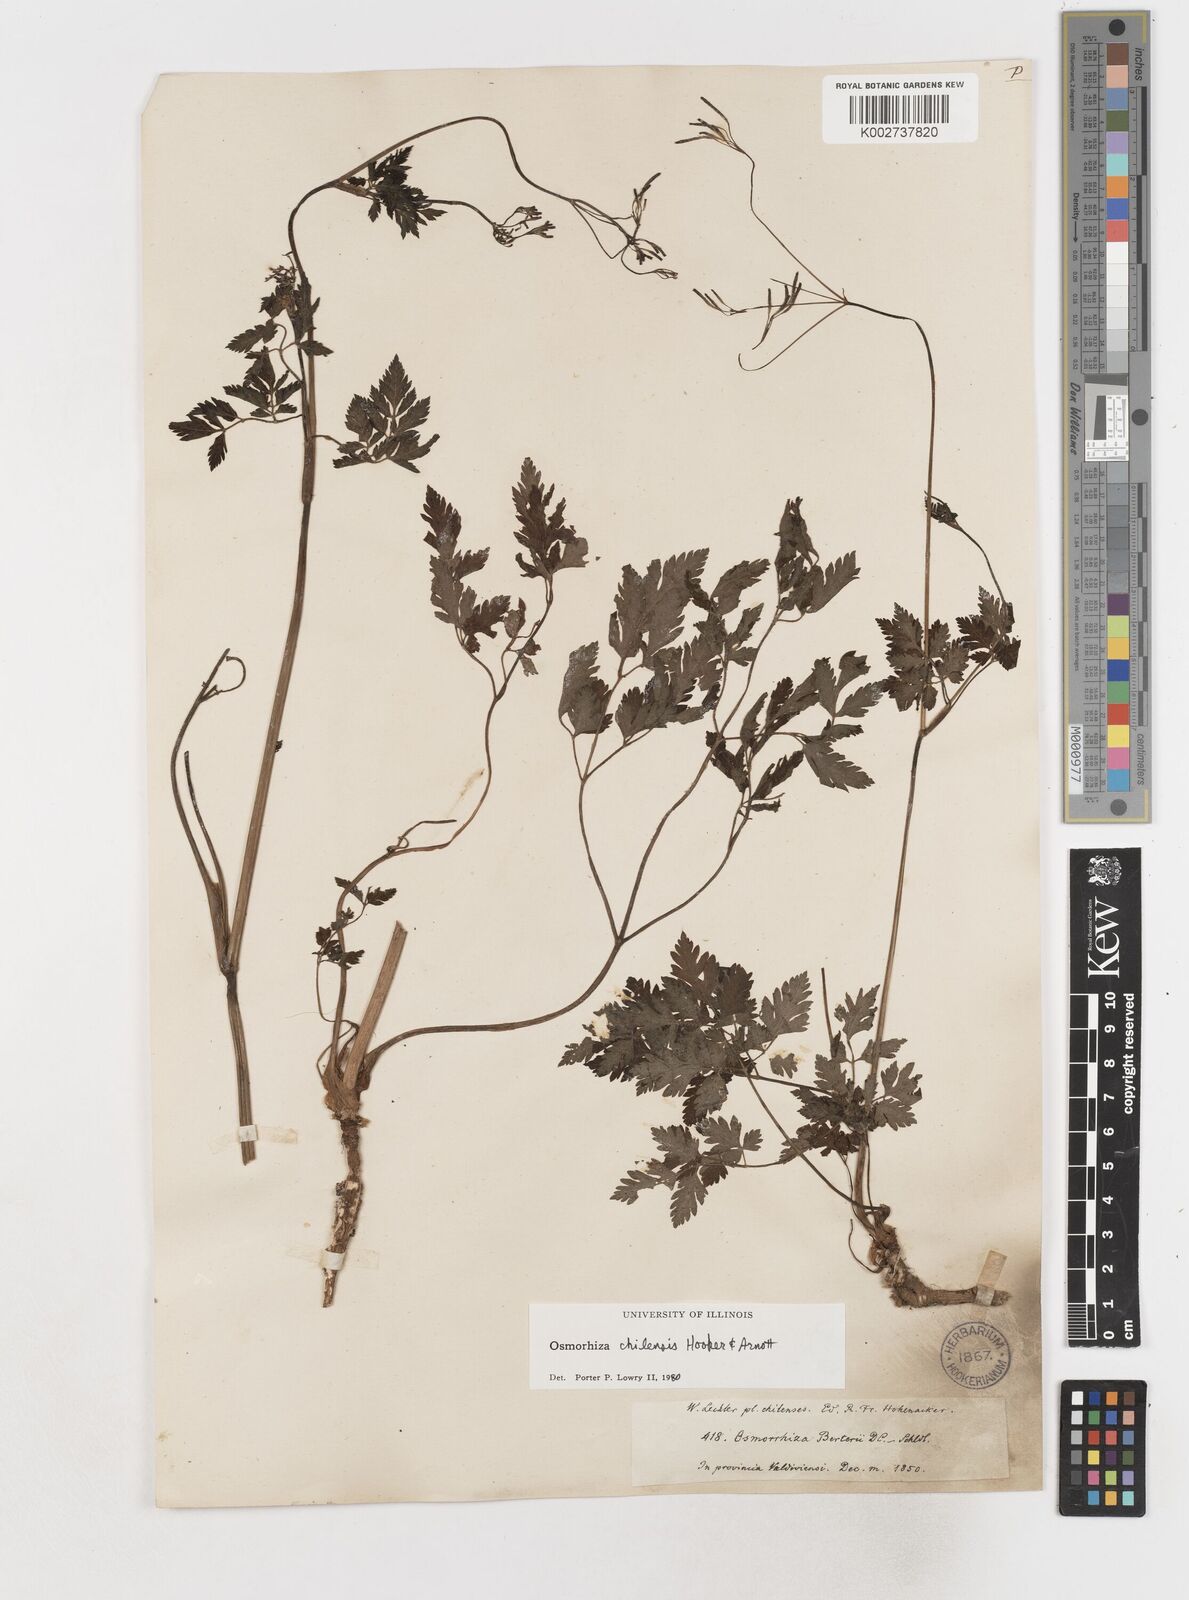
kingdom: Plantae
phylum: Tracheophyta
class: Magnoliopsida
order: Apiales
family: Apiaceae
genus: Osmorhiza
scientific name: Osmorhiza berteroi
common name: Mountain sweet cicely
